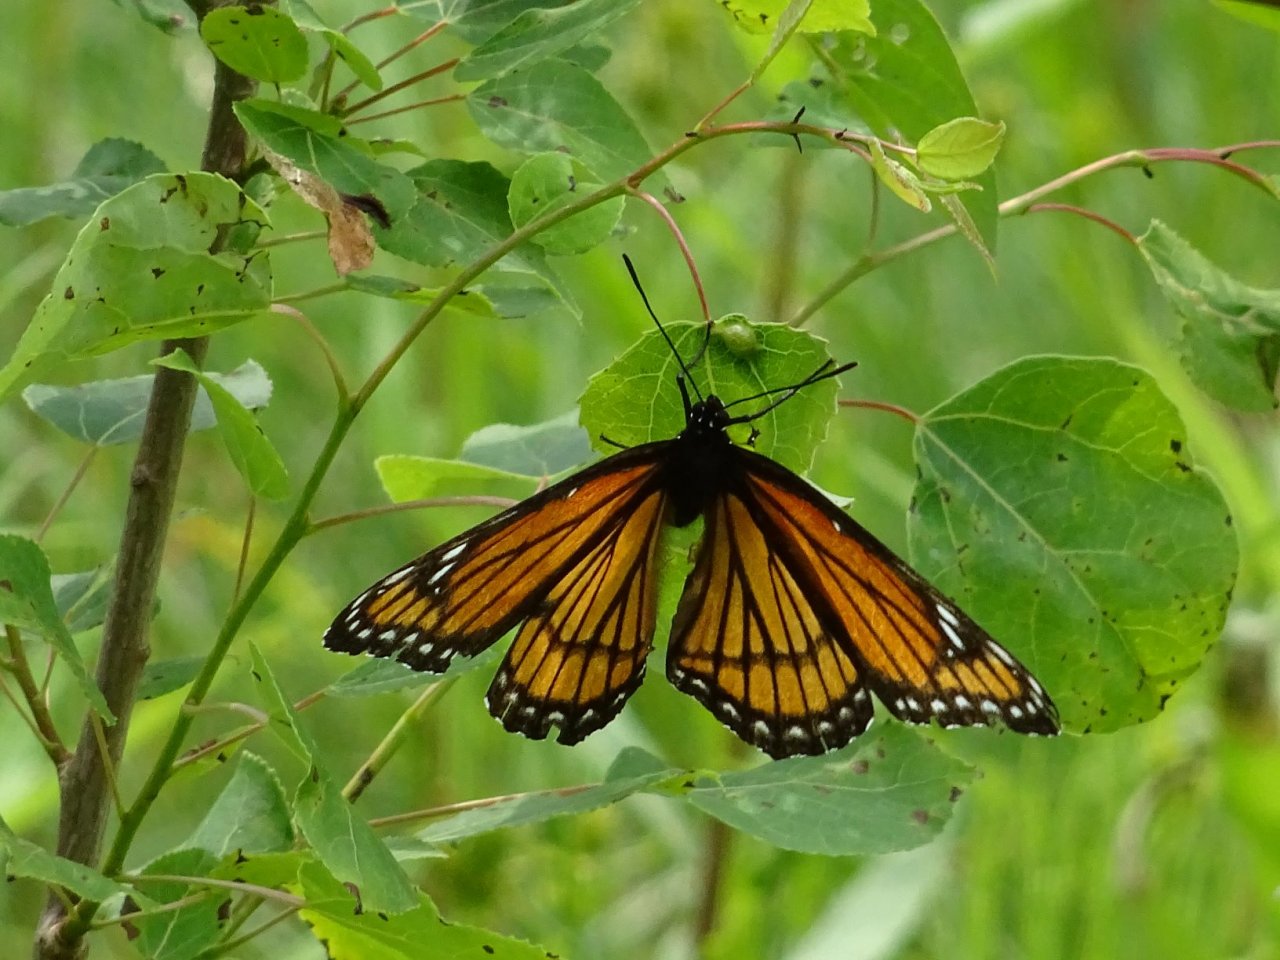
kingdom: Animalia
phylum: Arthropoda
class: Insecta
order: Lepidoptera
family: Nymphalidae
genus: Limenitis
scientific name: Limenitis archippus
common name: Viceroy
